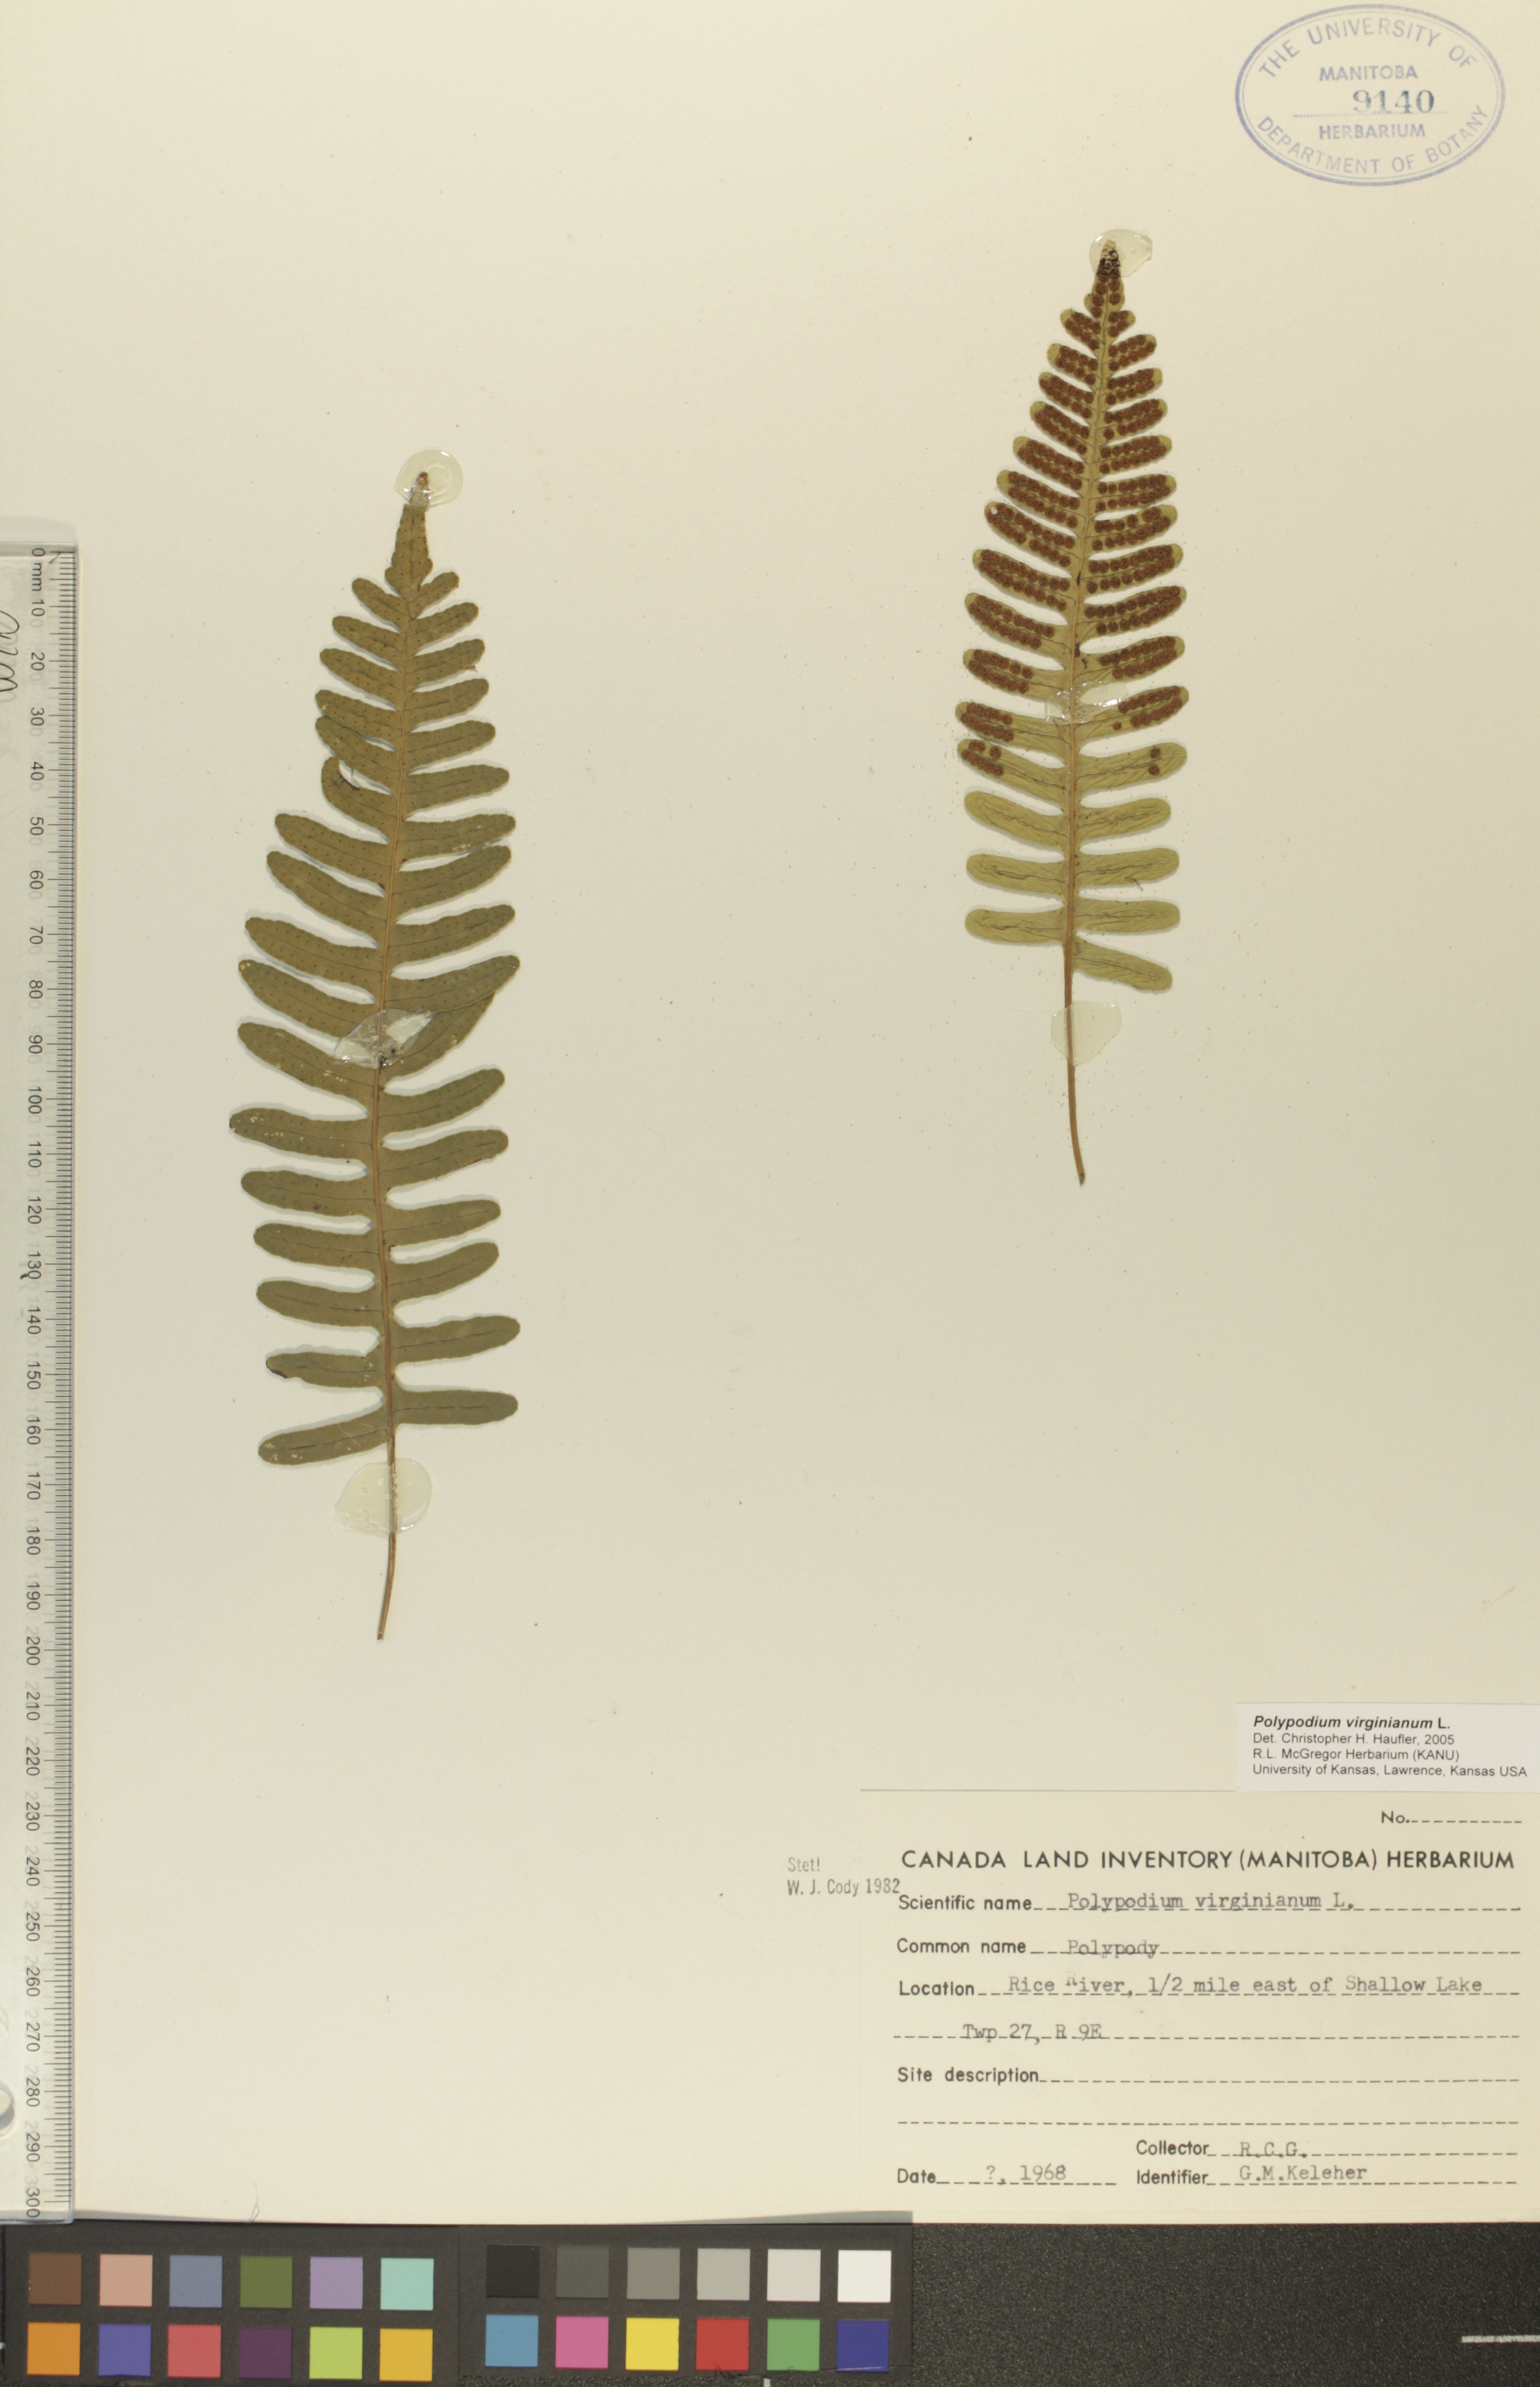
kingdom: Plantae
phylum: Tracheophyta
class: Polypodiopsida
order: Polypodiales
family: Polypodiaceae
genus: Polypodium
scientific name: Polypodium virginianum
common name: American wall fern
